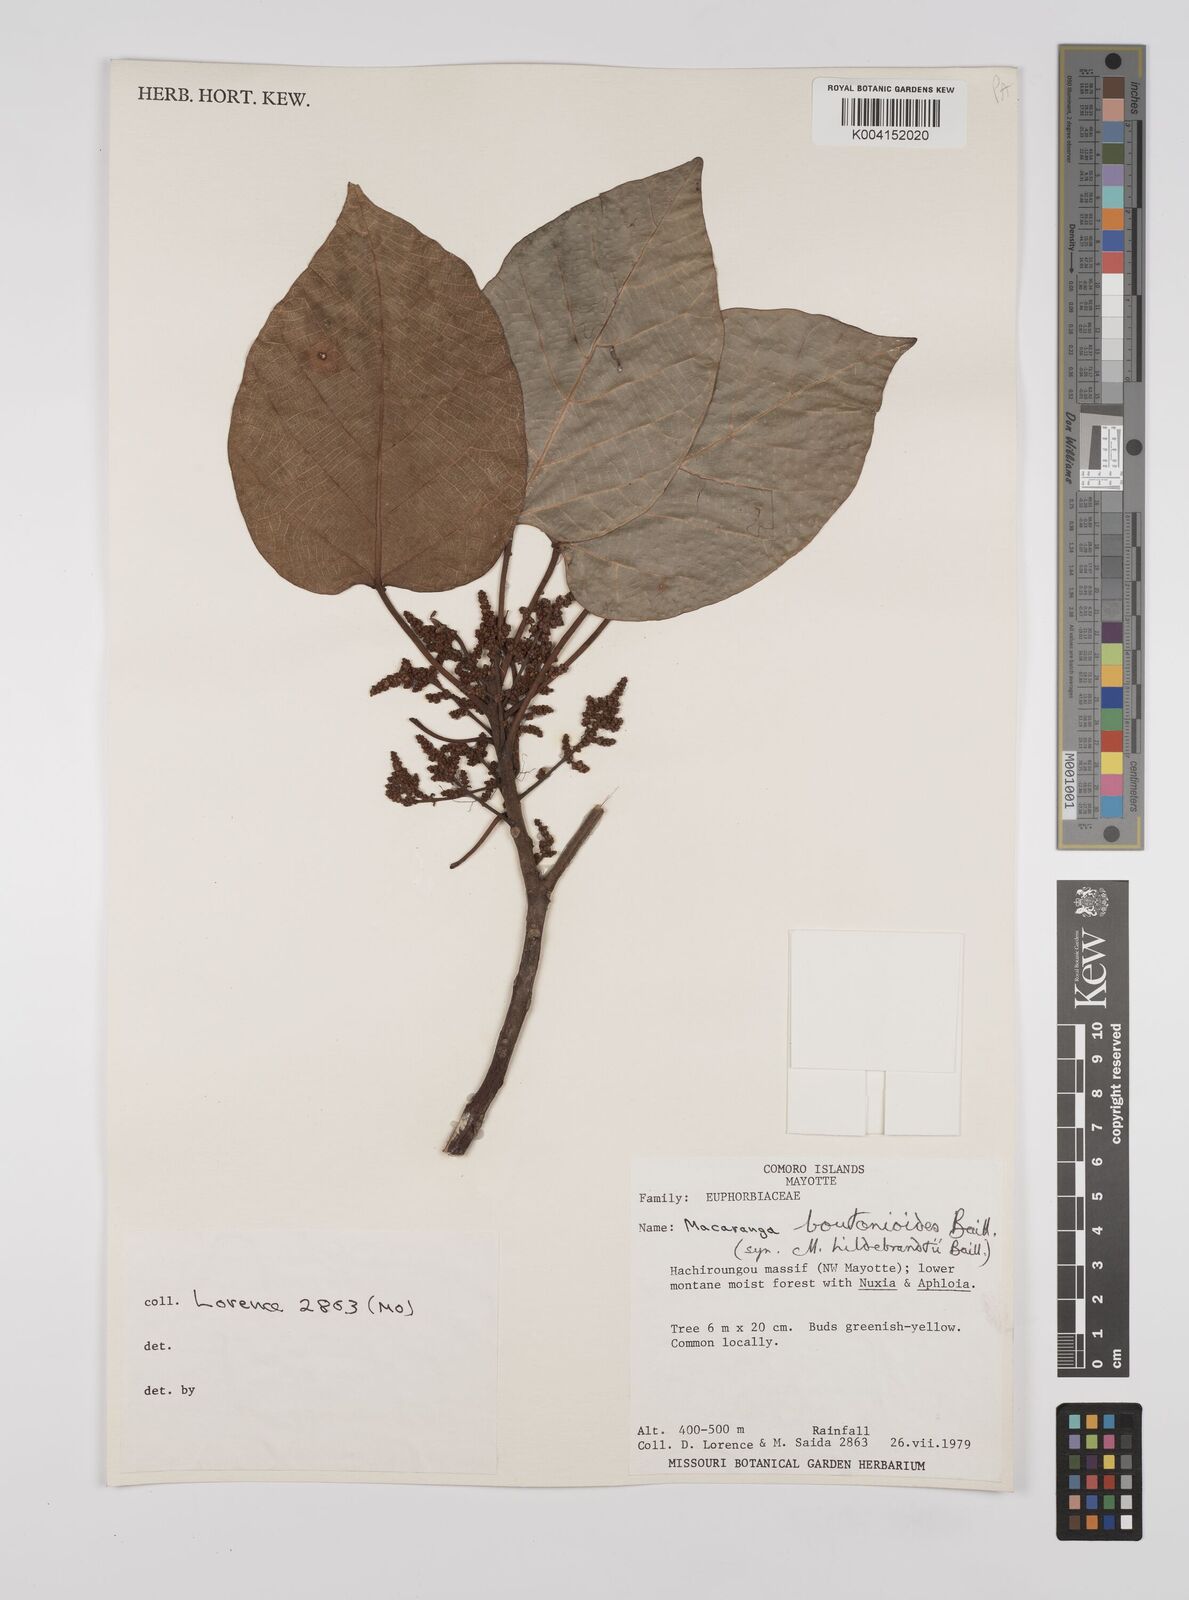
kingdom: Plantae
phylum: Tracheophyta
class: Magnoliopsida
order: Malpighiales
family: Euphorbiaceae
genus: Macaranga
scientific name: Macaranga boutonioides
